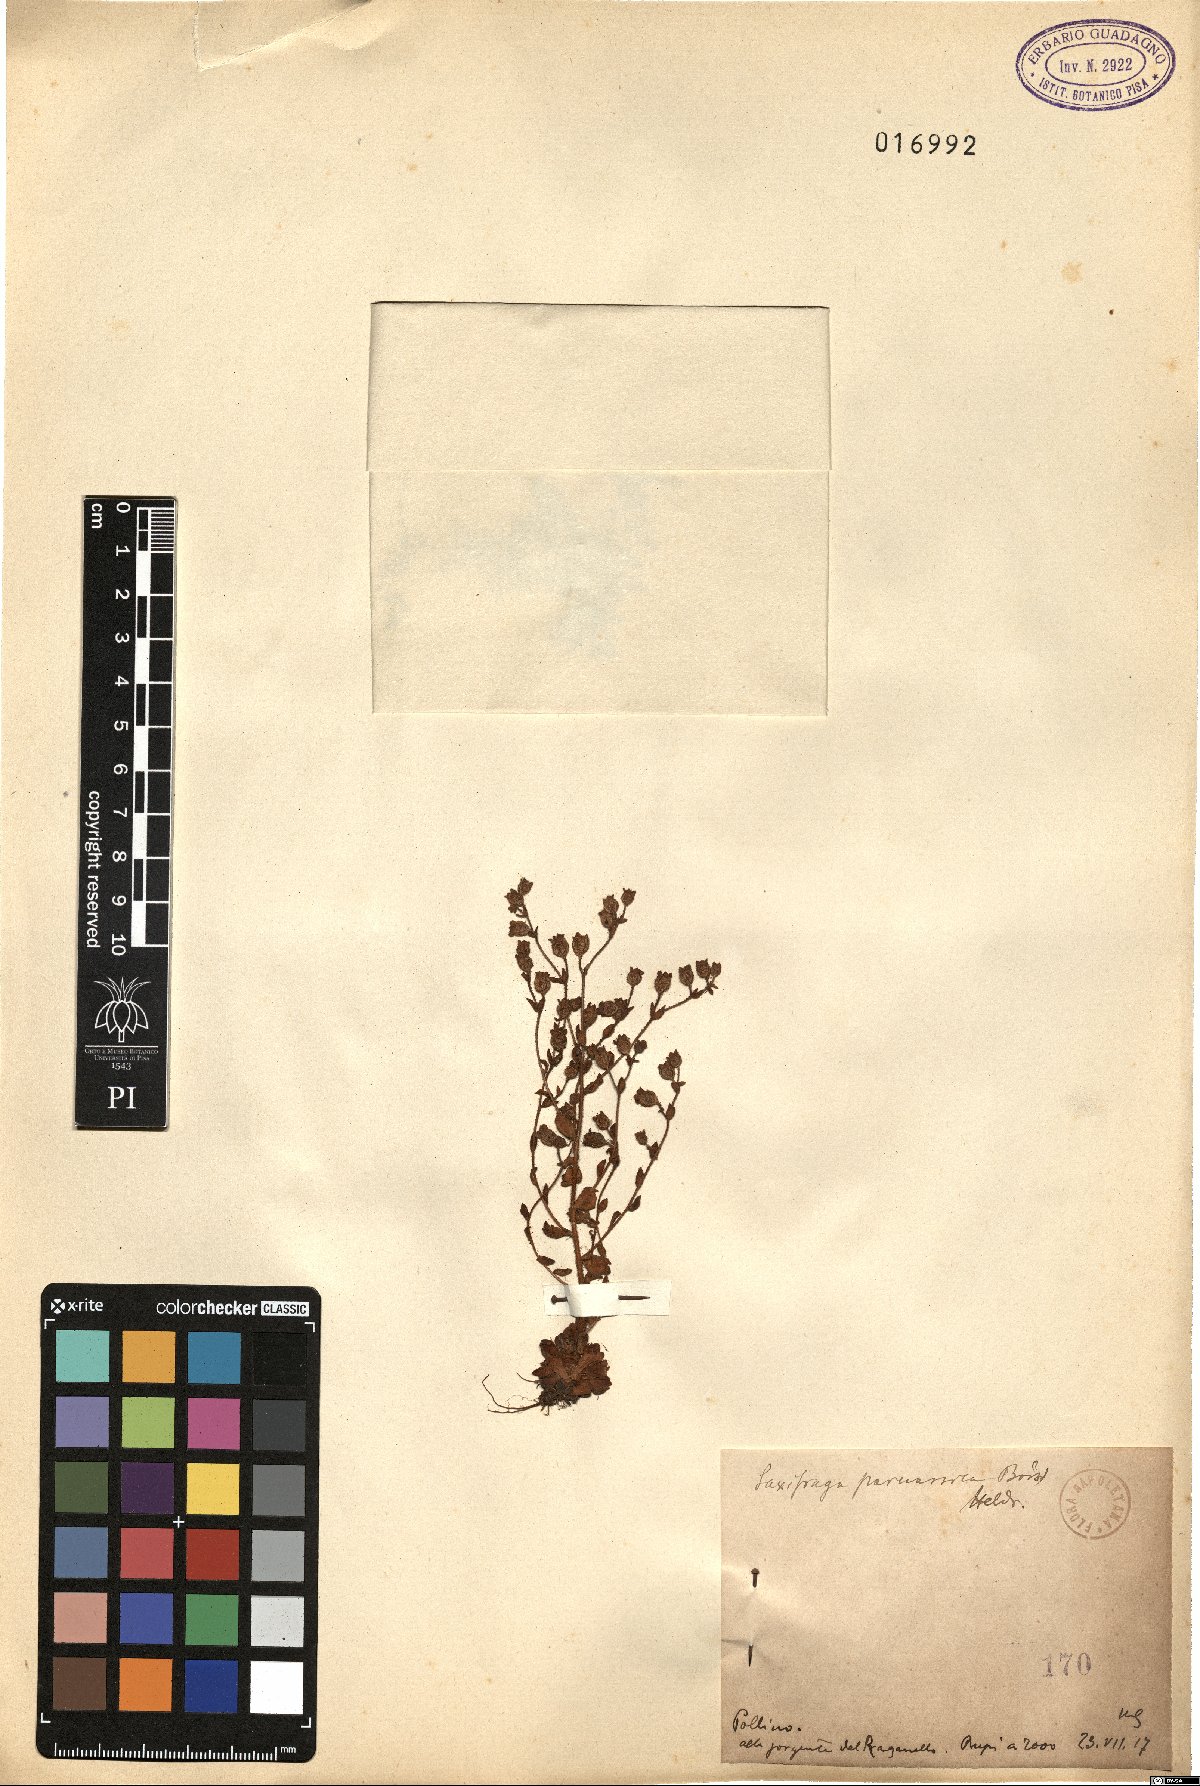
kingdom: Plantae
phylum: Tracheophyta
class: Magnoliopsida
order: Saxifragales
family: Saxifragaceae
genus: Saxifraga
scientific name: Saxifraga adscendens
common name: Ascending saxifrage
